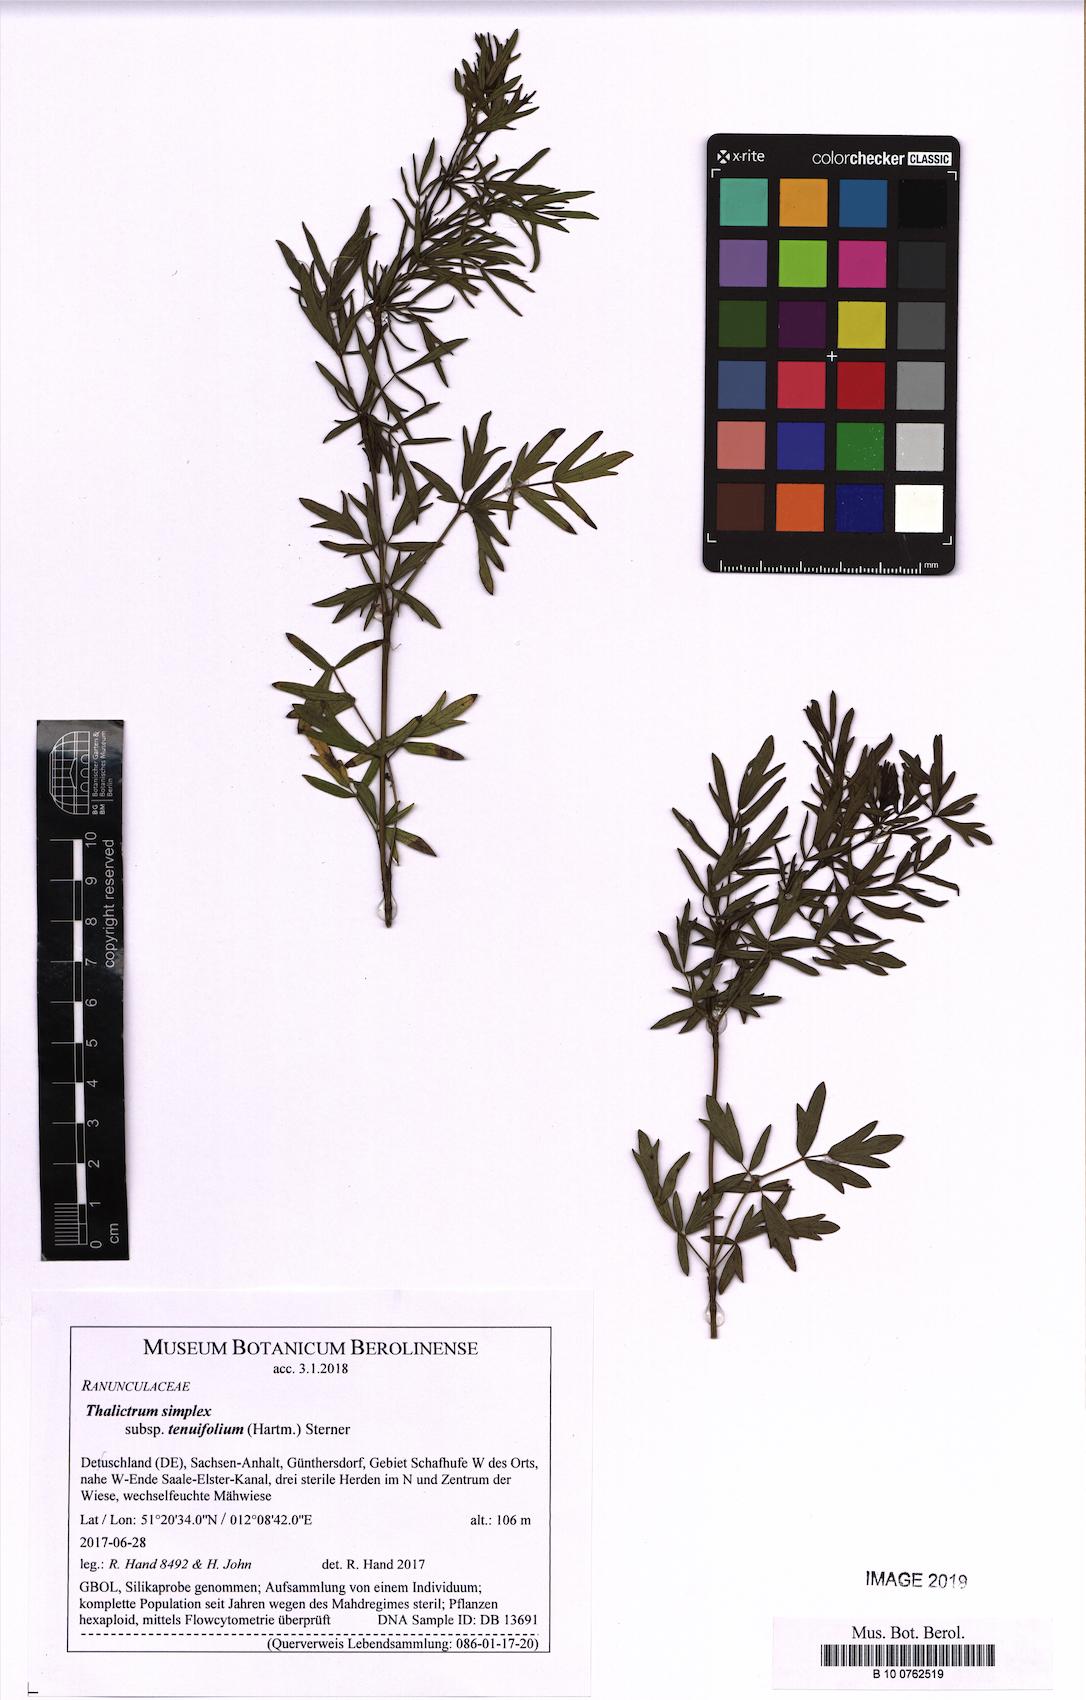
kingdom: Plantae
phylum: Tracheophyta
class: Magnoliopsida
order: Ranunculales
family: Ranunculaceae
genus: Thalictrum
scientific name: Thalictrum simplex
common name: Small meadow-rue
